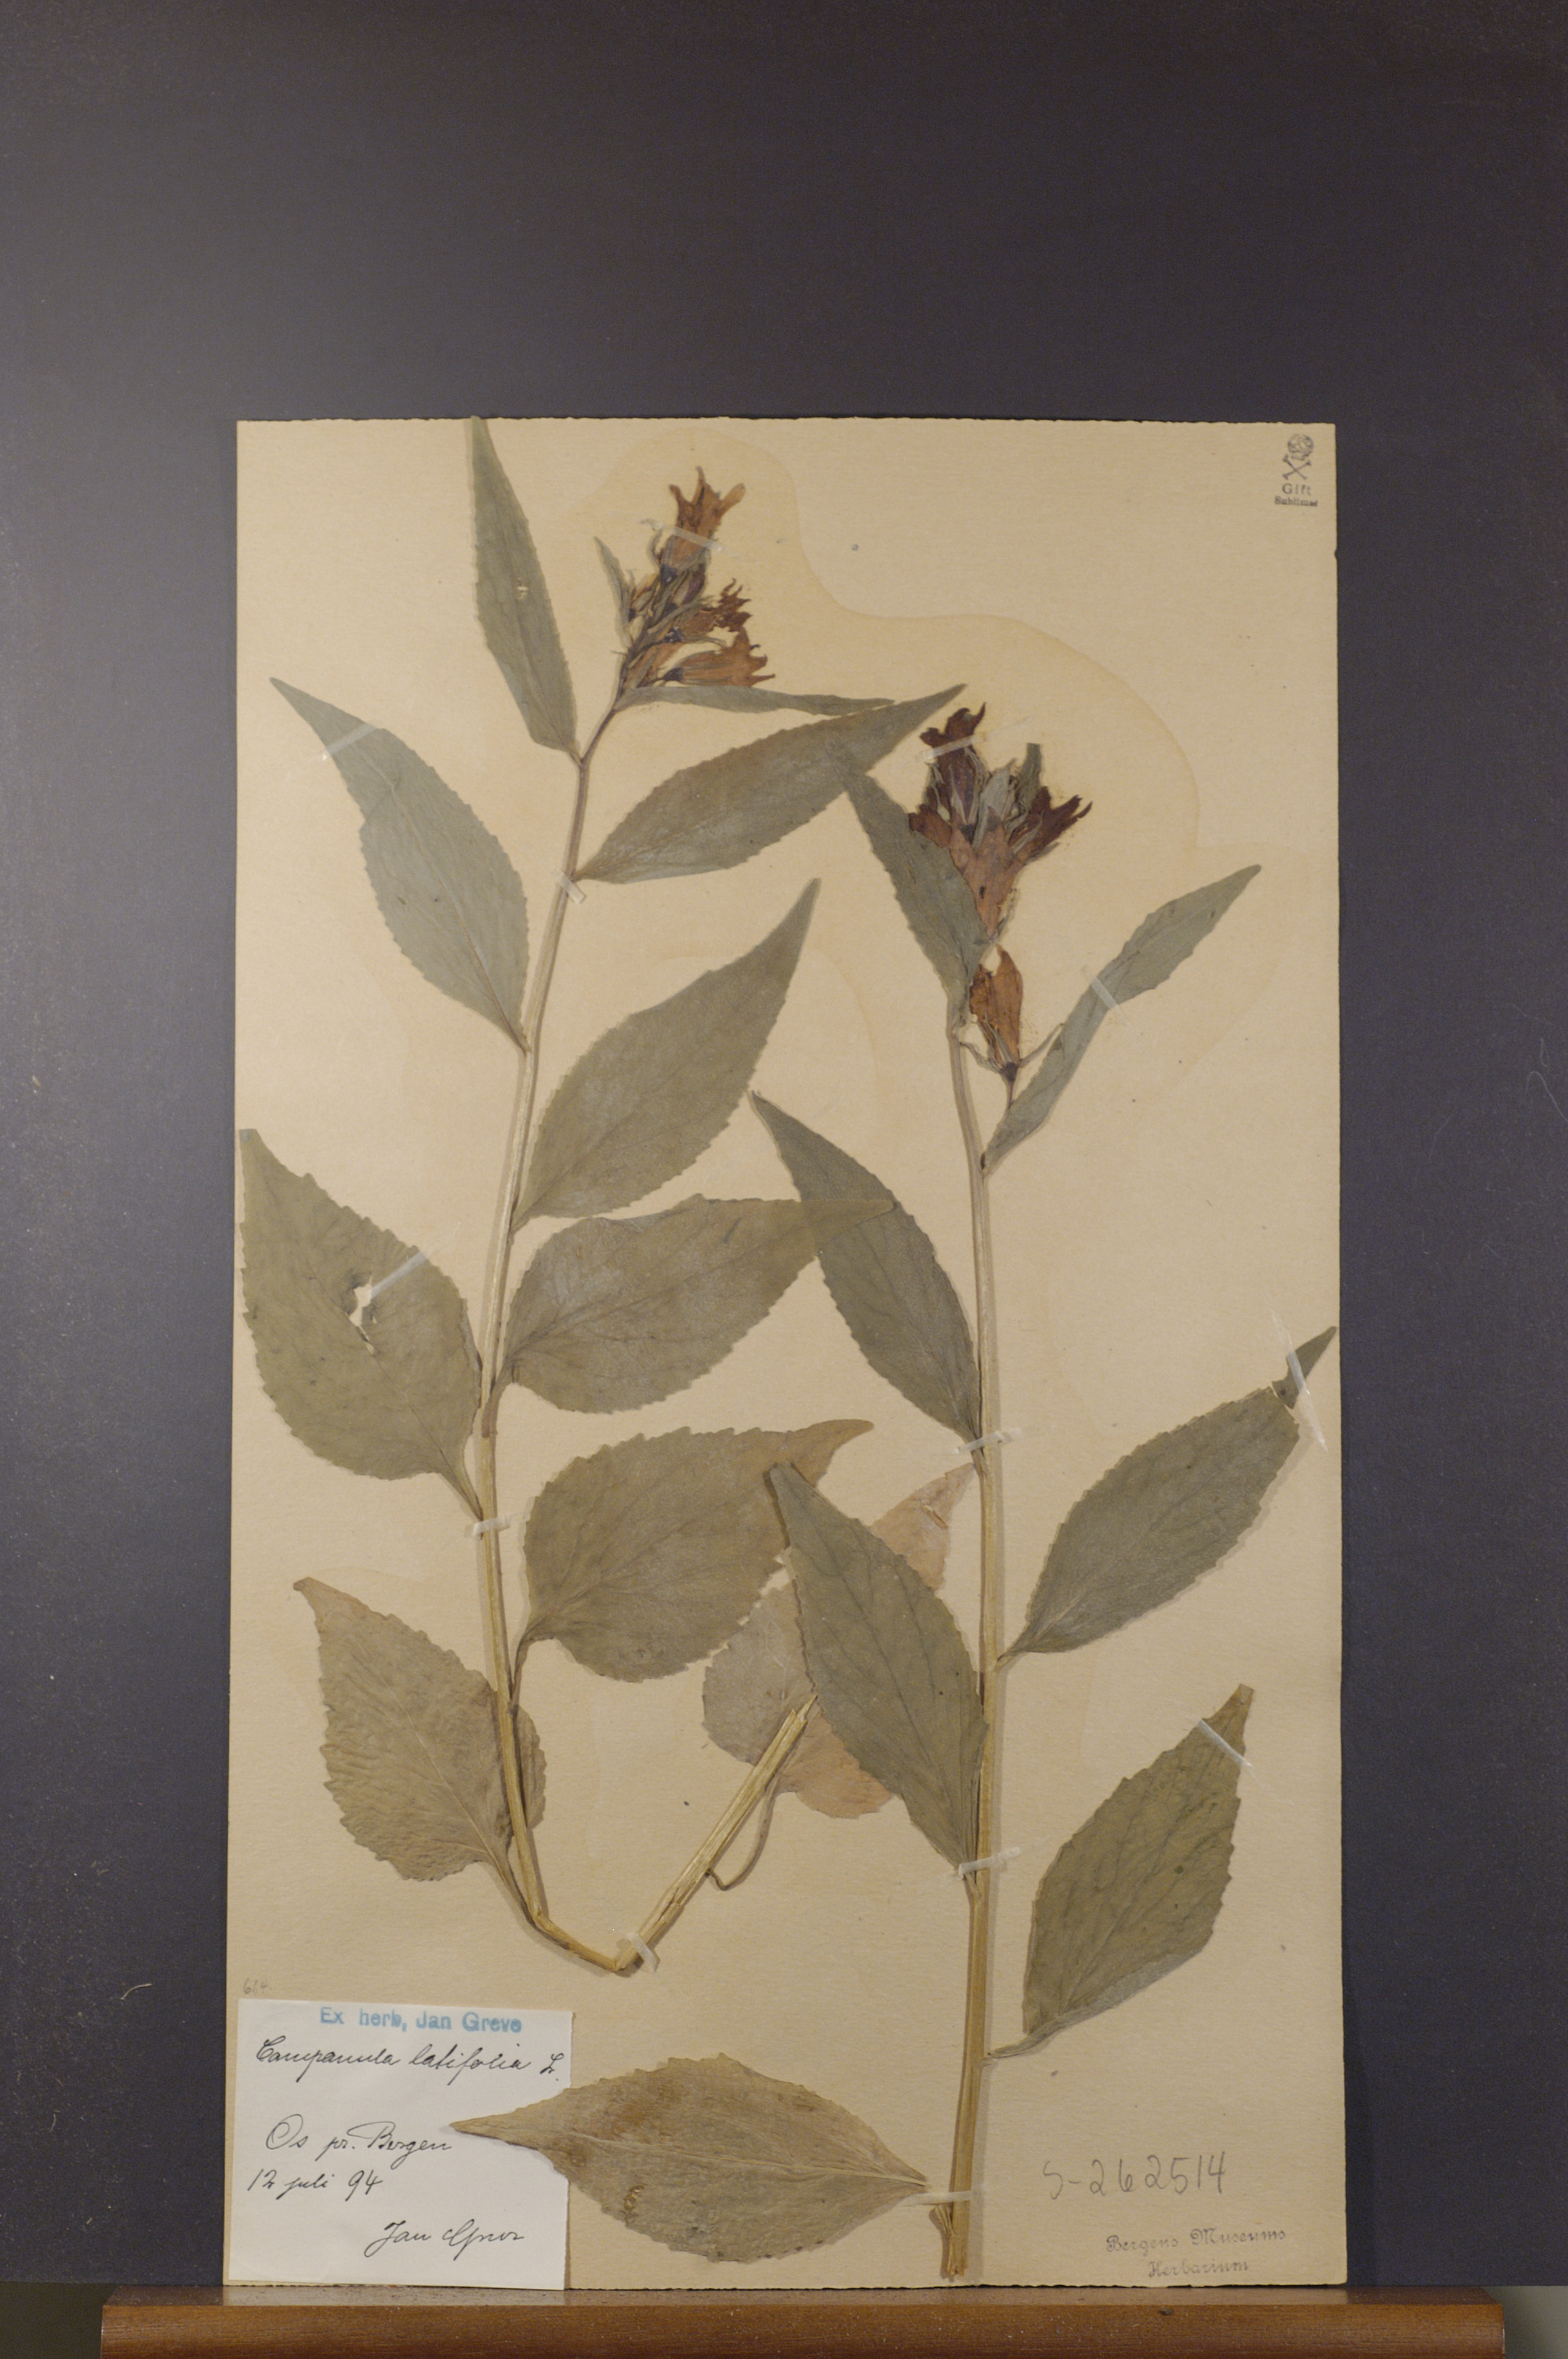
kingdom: Plantae
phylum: Tracheophyta
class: Magnoliopsida
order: Asterales
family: Campanulaceae
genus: Campanula
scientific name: Campanula latifolia
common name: Giant bellflower
